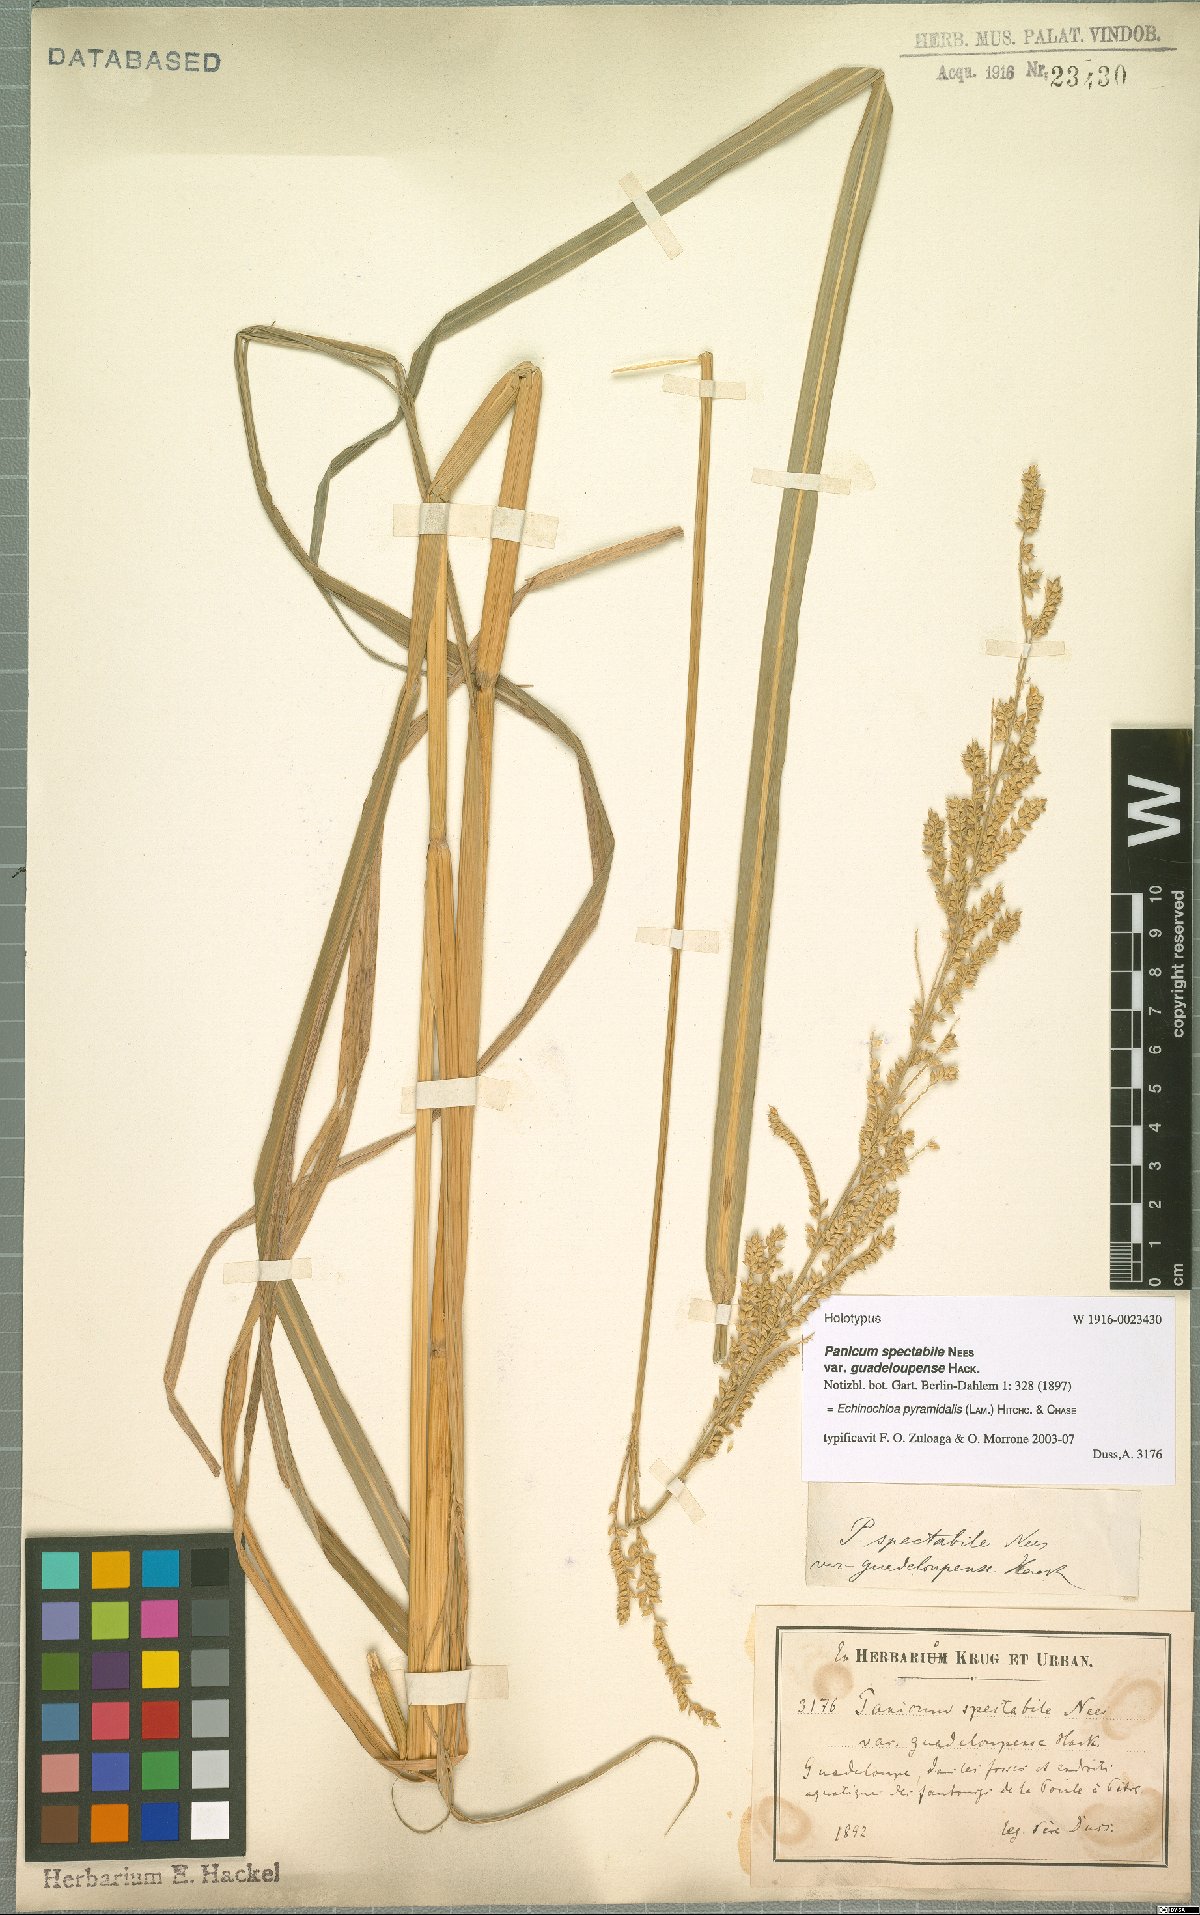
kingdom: Plantae
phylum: Tracheophyta
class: Liliopsida
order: Poales
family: Poaceae
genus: Echinochloa
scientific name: Echinochloa pyramidalis
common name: Antelope grass
